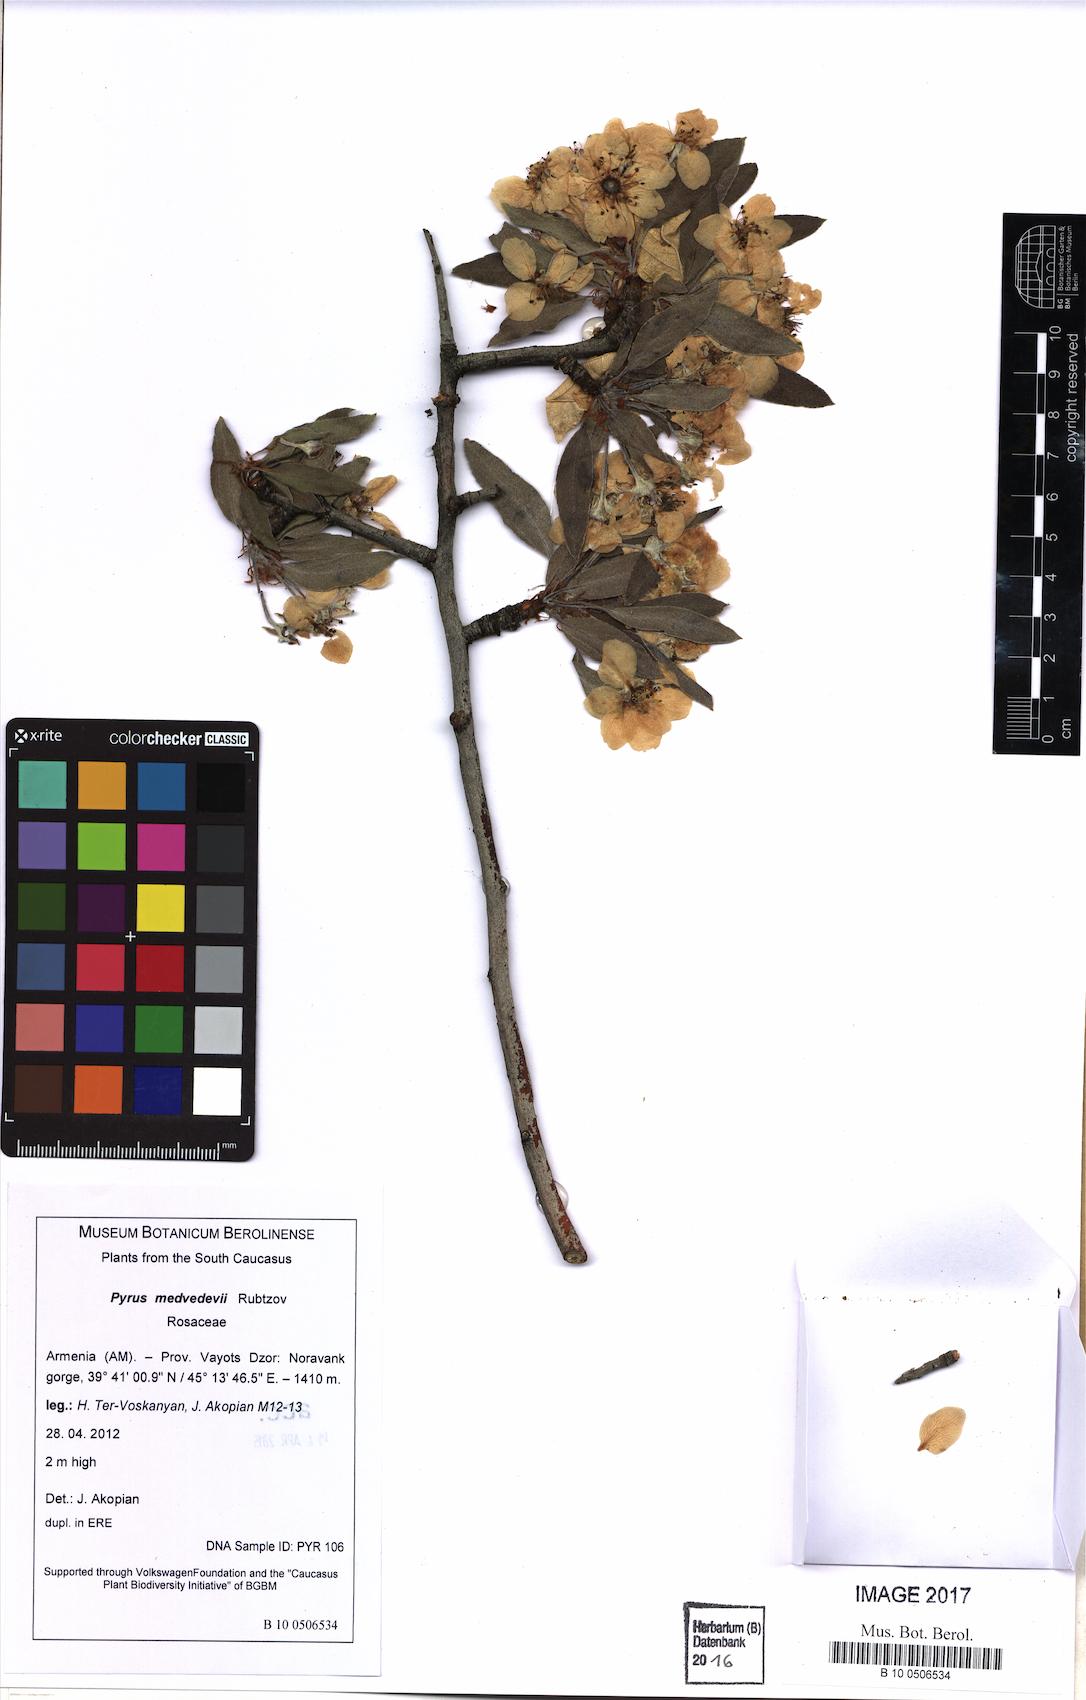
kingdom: Plantae
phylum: Tracheophyta
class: Magnoliopsida
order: Rosales
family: Rosaceae
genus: Pyrus
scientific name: Pyrus medvedevii
